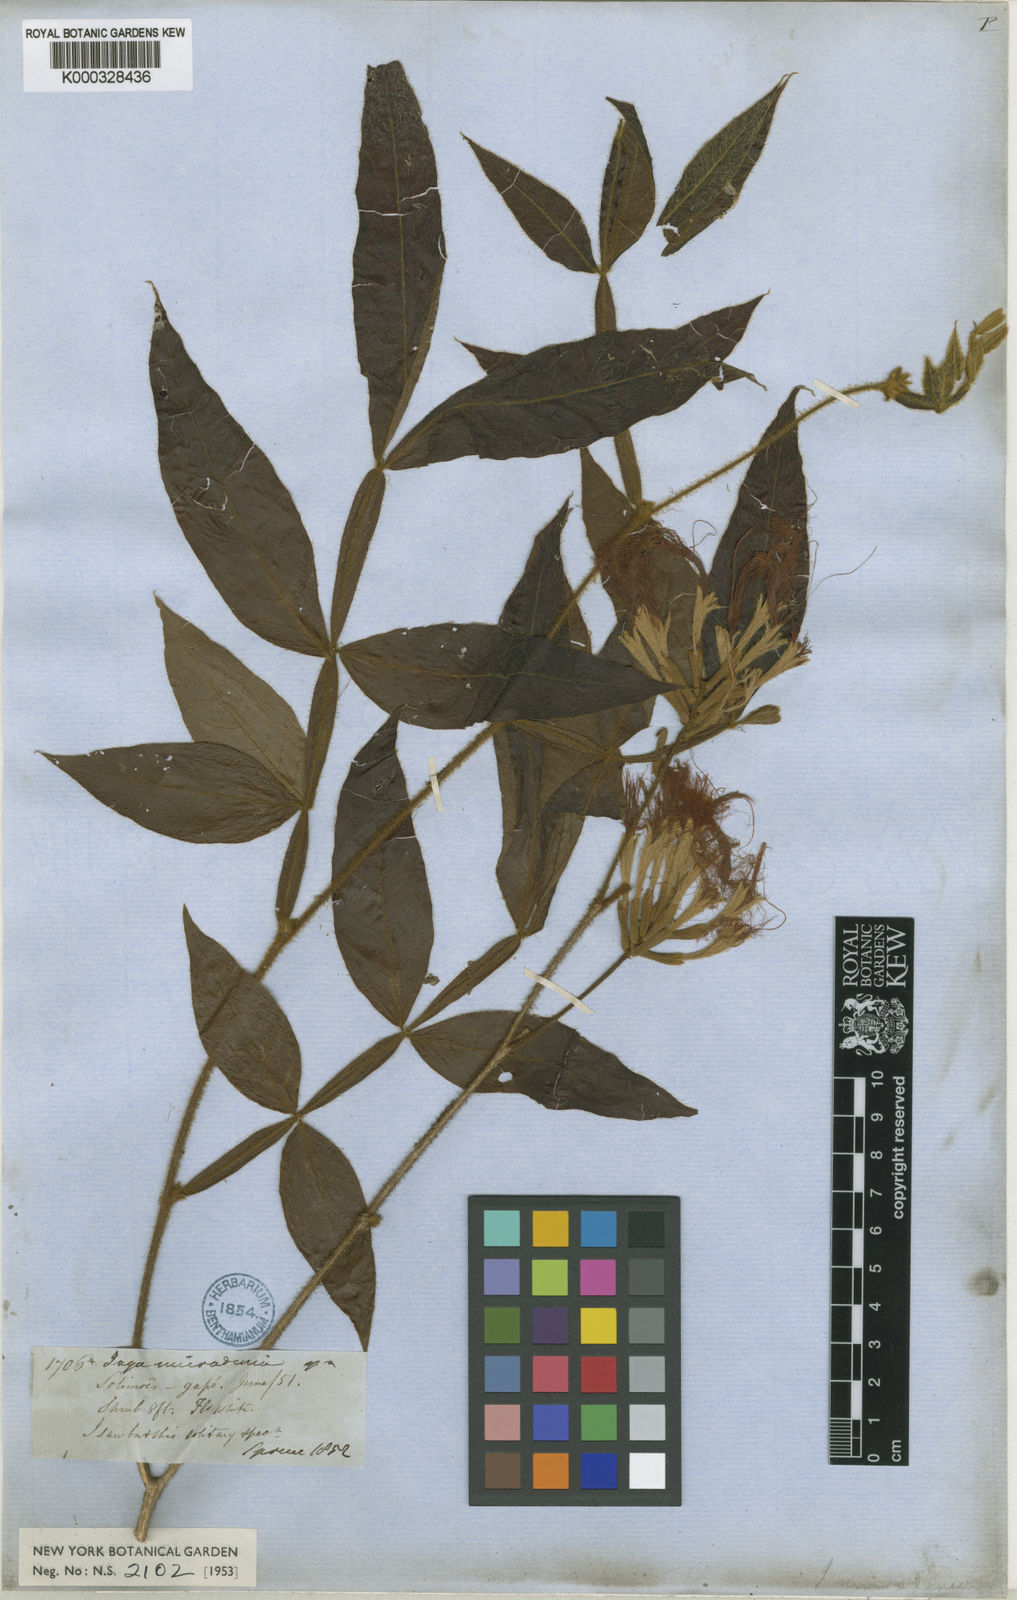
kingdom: Plantae
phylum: Tracheophyta
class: Magnoliopsida
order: Fabales
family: Fabaceae
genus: Inga
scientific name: Inga micradenia
